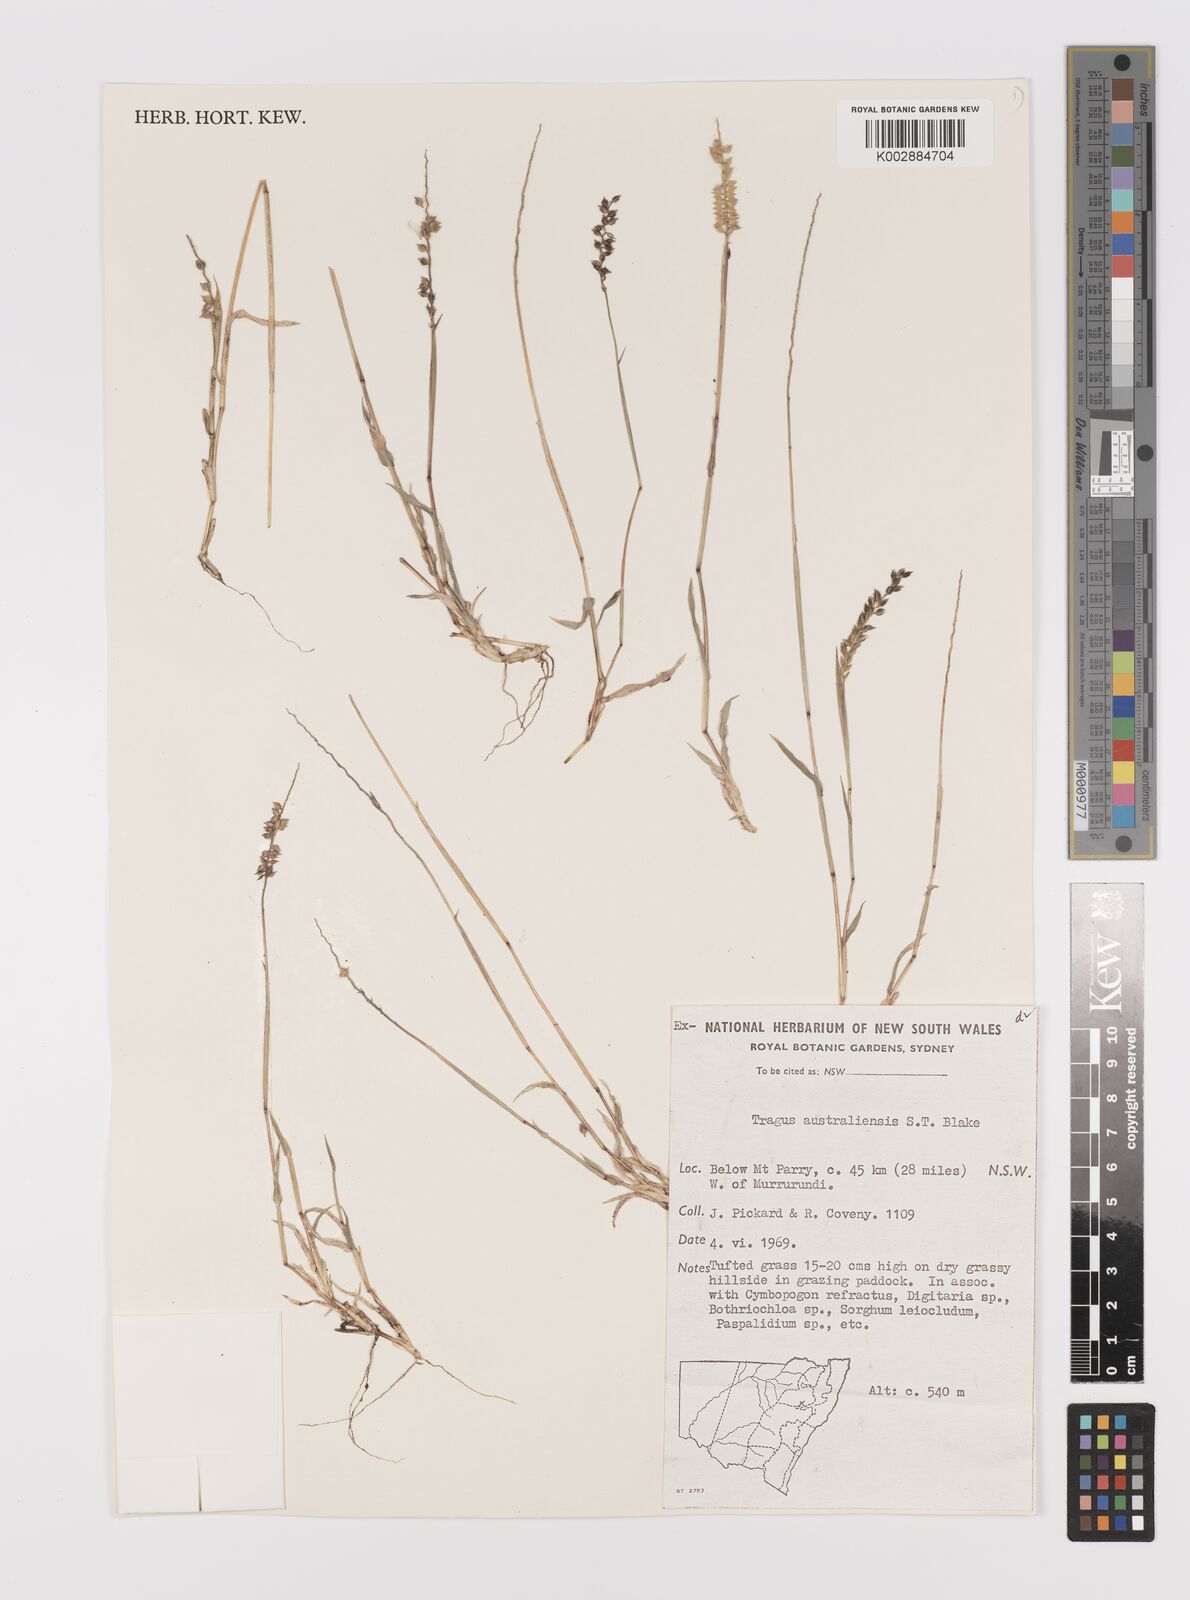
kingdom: Plantae
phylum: Tracheophyta
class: Liliopsida
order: Poales
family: Poaceae
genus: Tragus
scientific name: Tragus australianus
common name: Australian bur-grass
